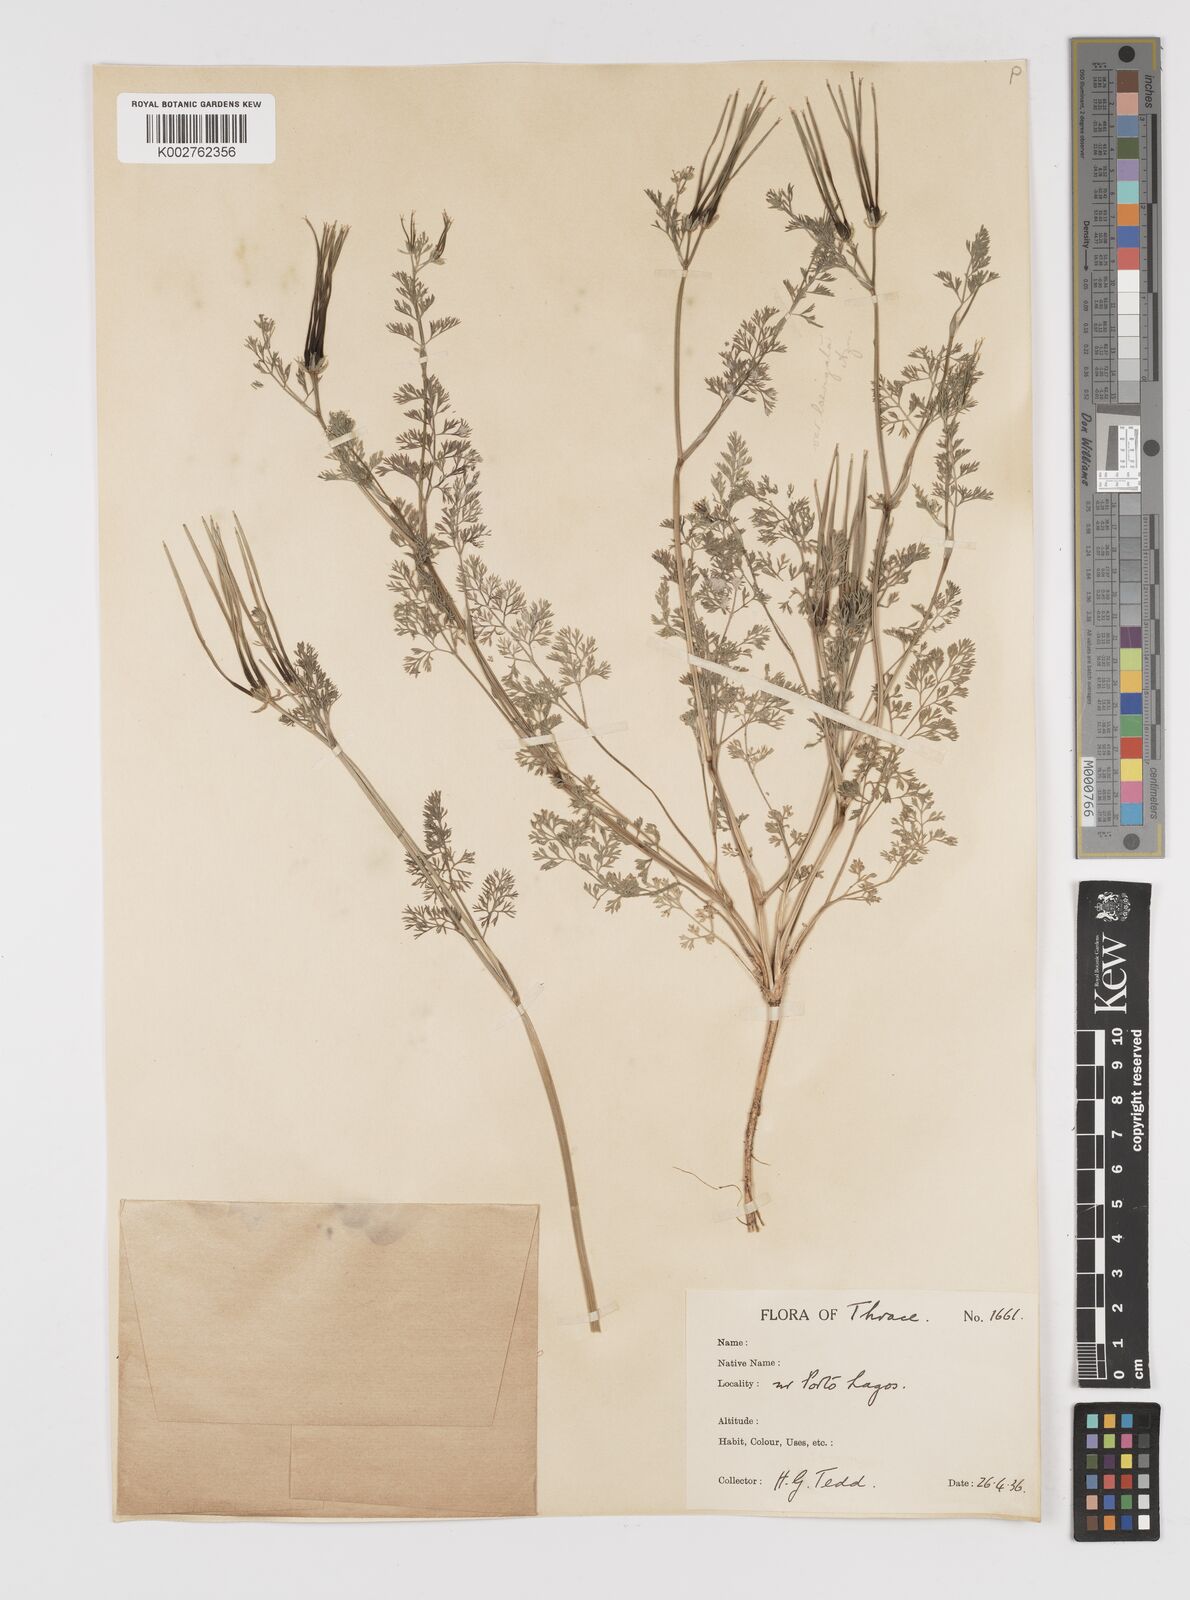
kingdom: Plantae
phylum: Tracheophyta
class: Magnoliopsida
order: Apiales
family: Apiaceae
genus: Scandix
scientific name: Scandix pecten-veneris
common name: Shepherd's-needle
